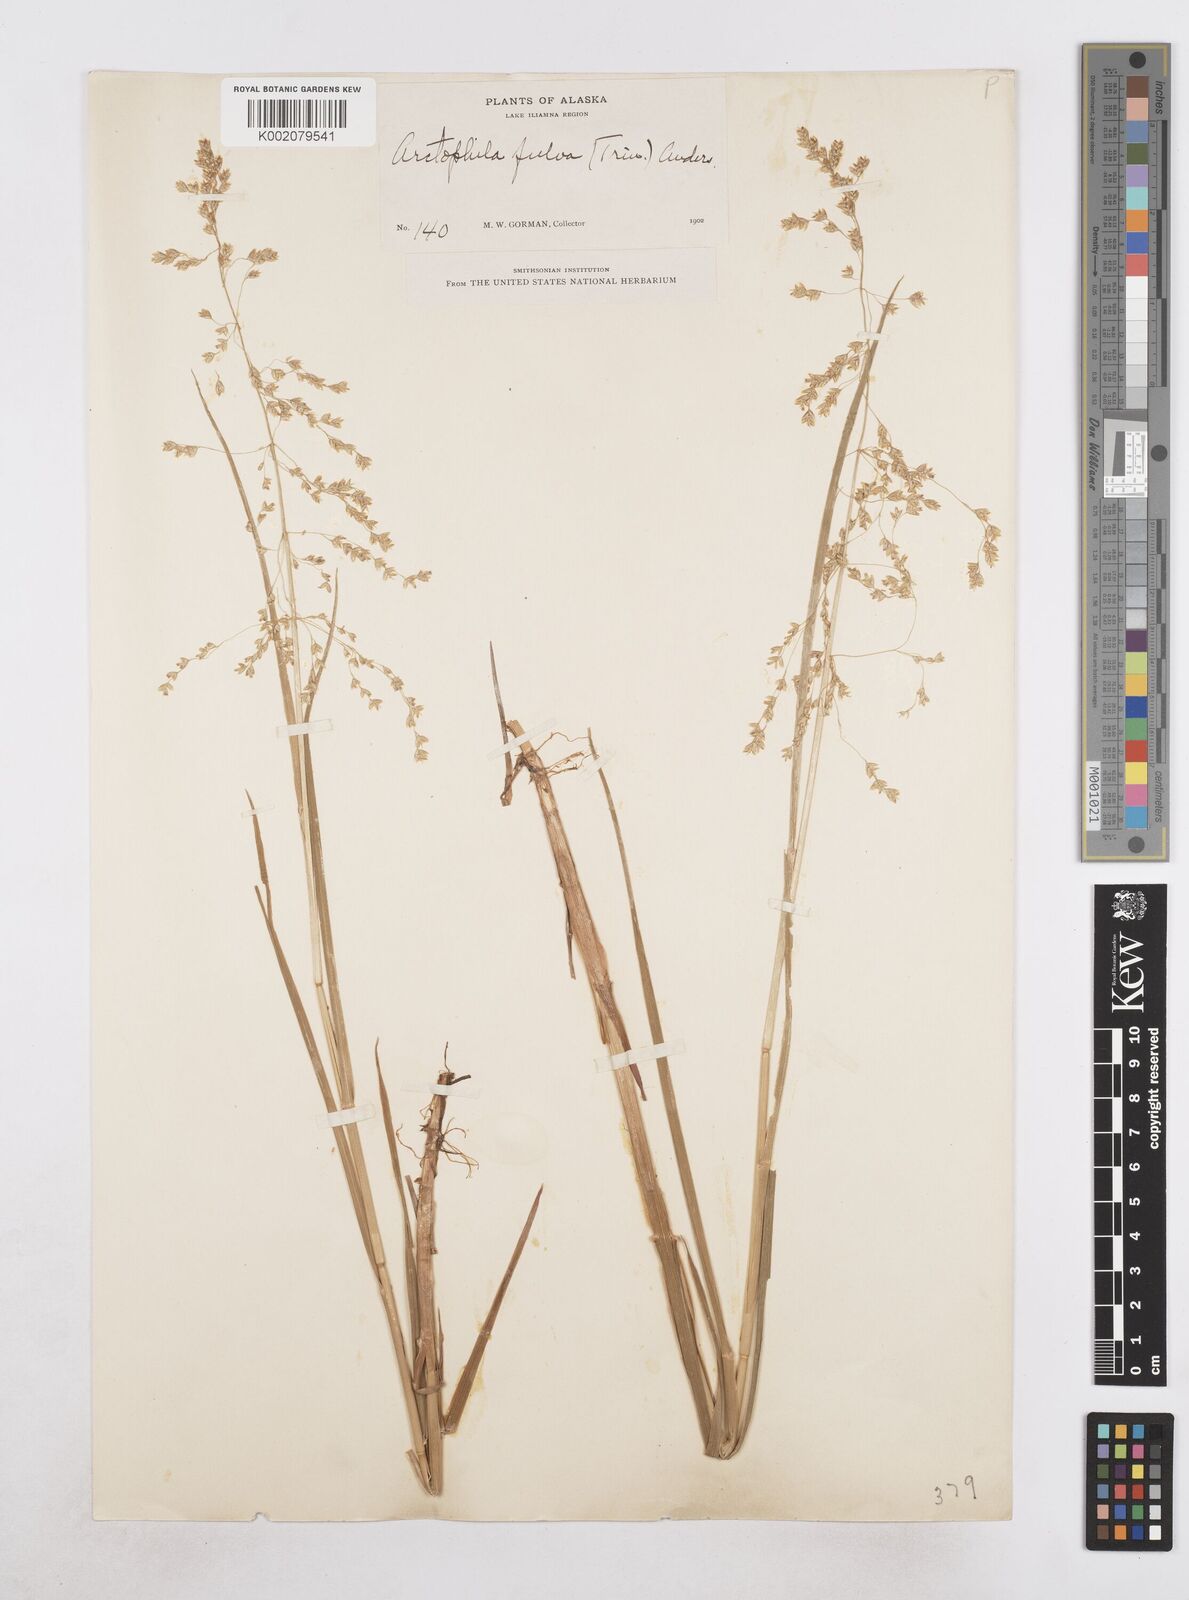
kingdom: Plantae
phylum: Tracheophyta
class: Liliopsida
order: Poales
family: Poaceae
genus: Dupontia
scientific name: Dupontia fulva
